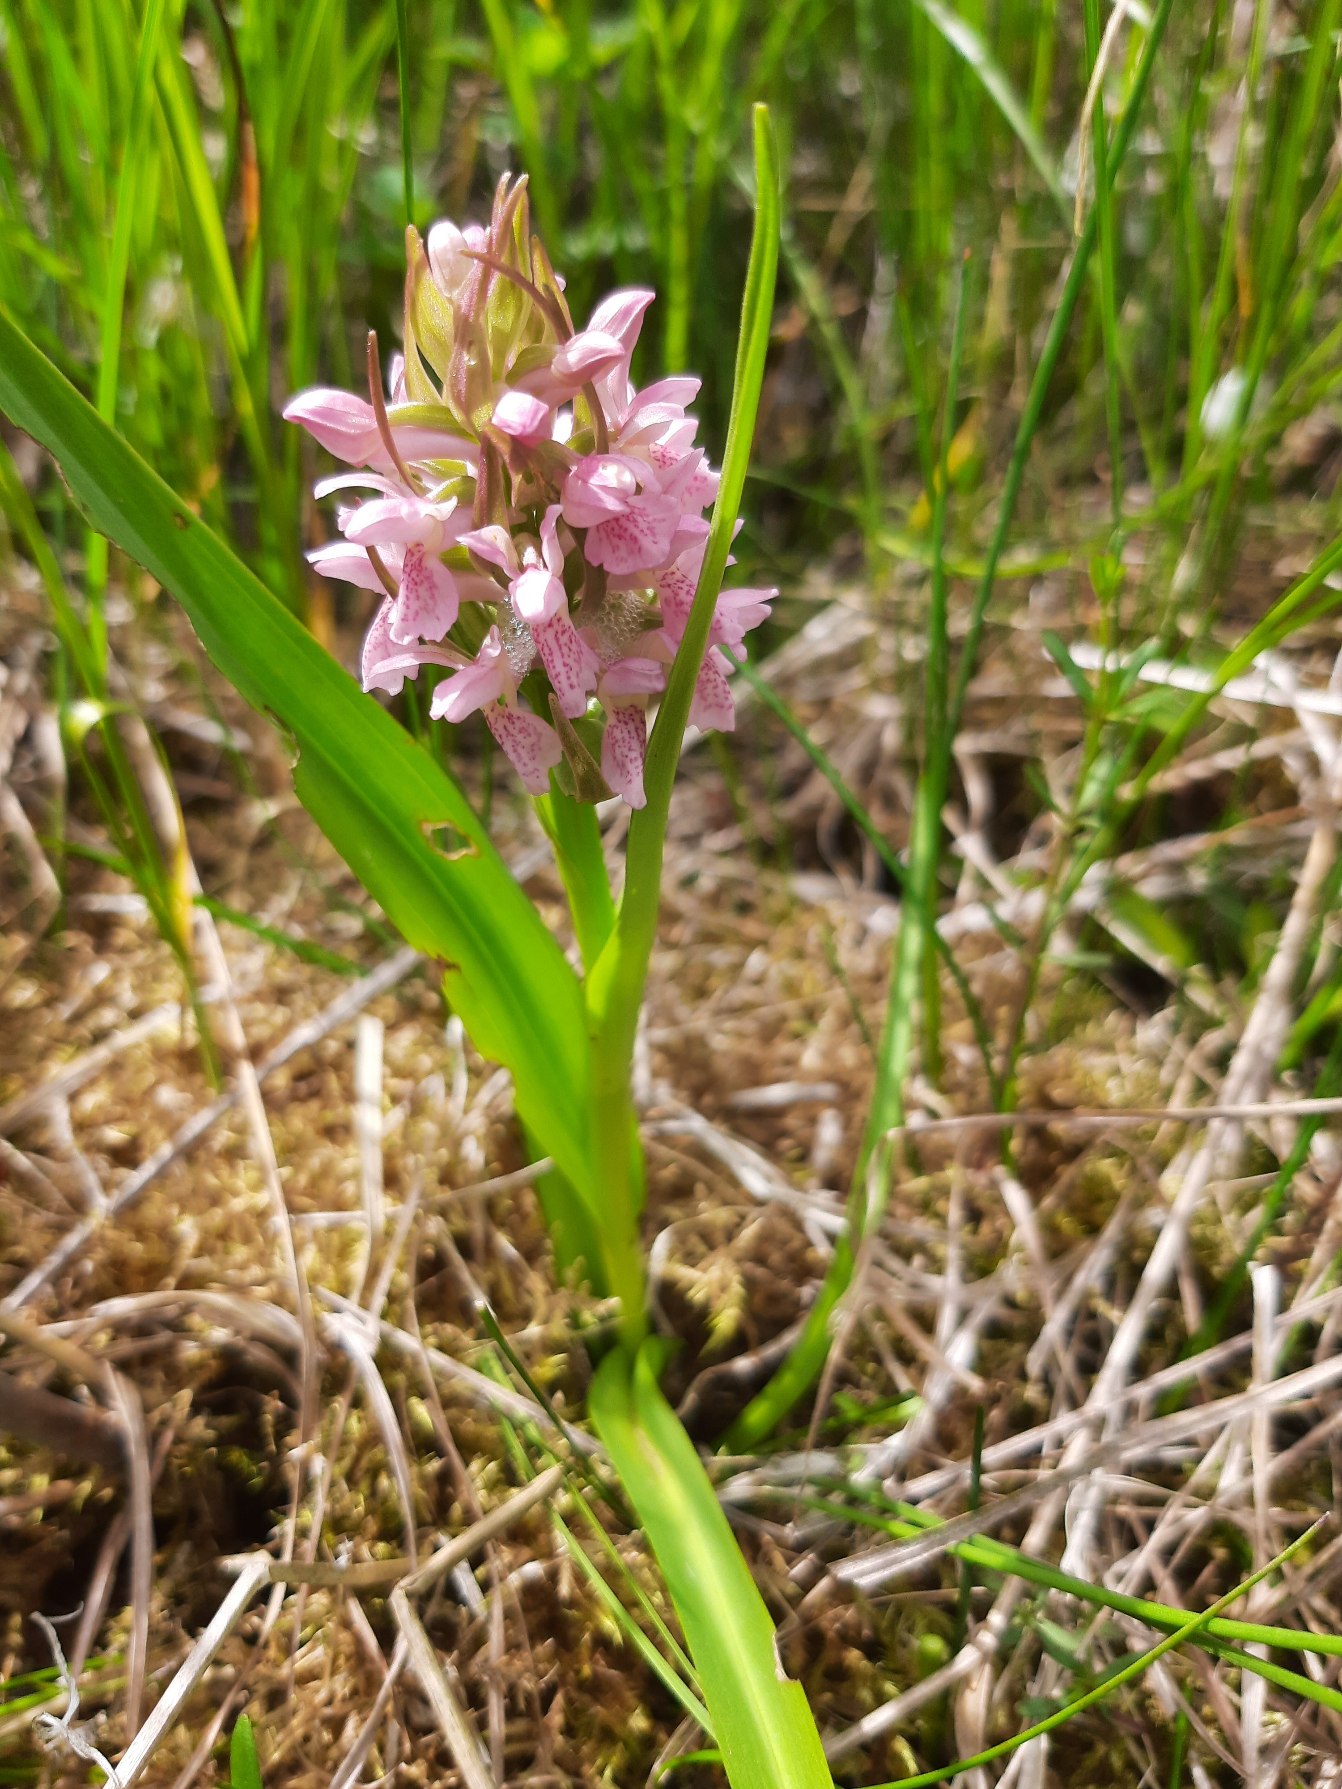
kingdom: Plantae
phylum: Tracheophyta
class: Liliopsida
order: Asparagales
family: Orchidaceae
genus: Dactylorhiza
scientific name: Dactylorhiza incarnata
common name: Kødfarvet gøgeurt
